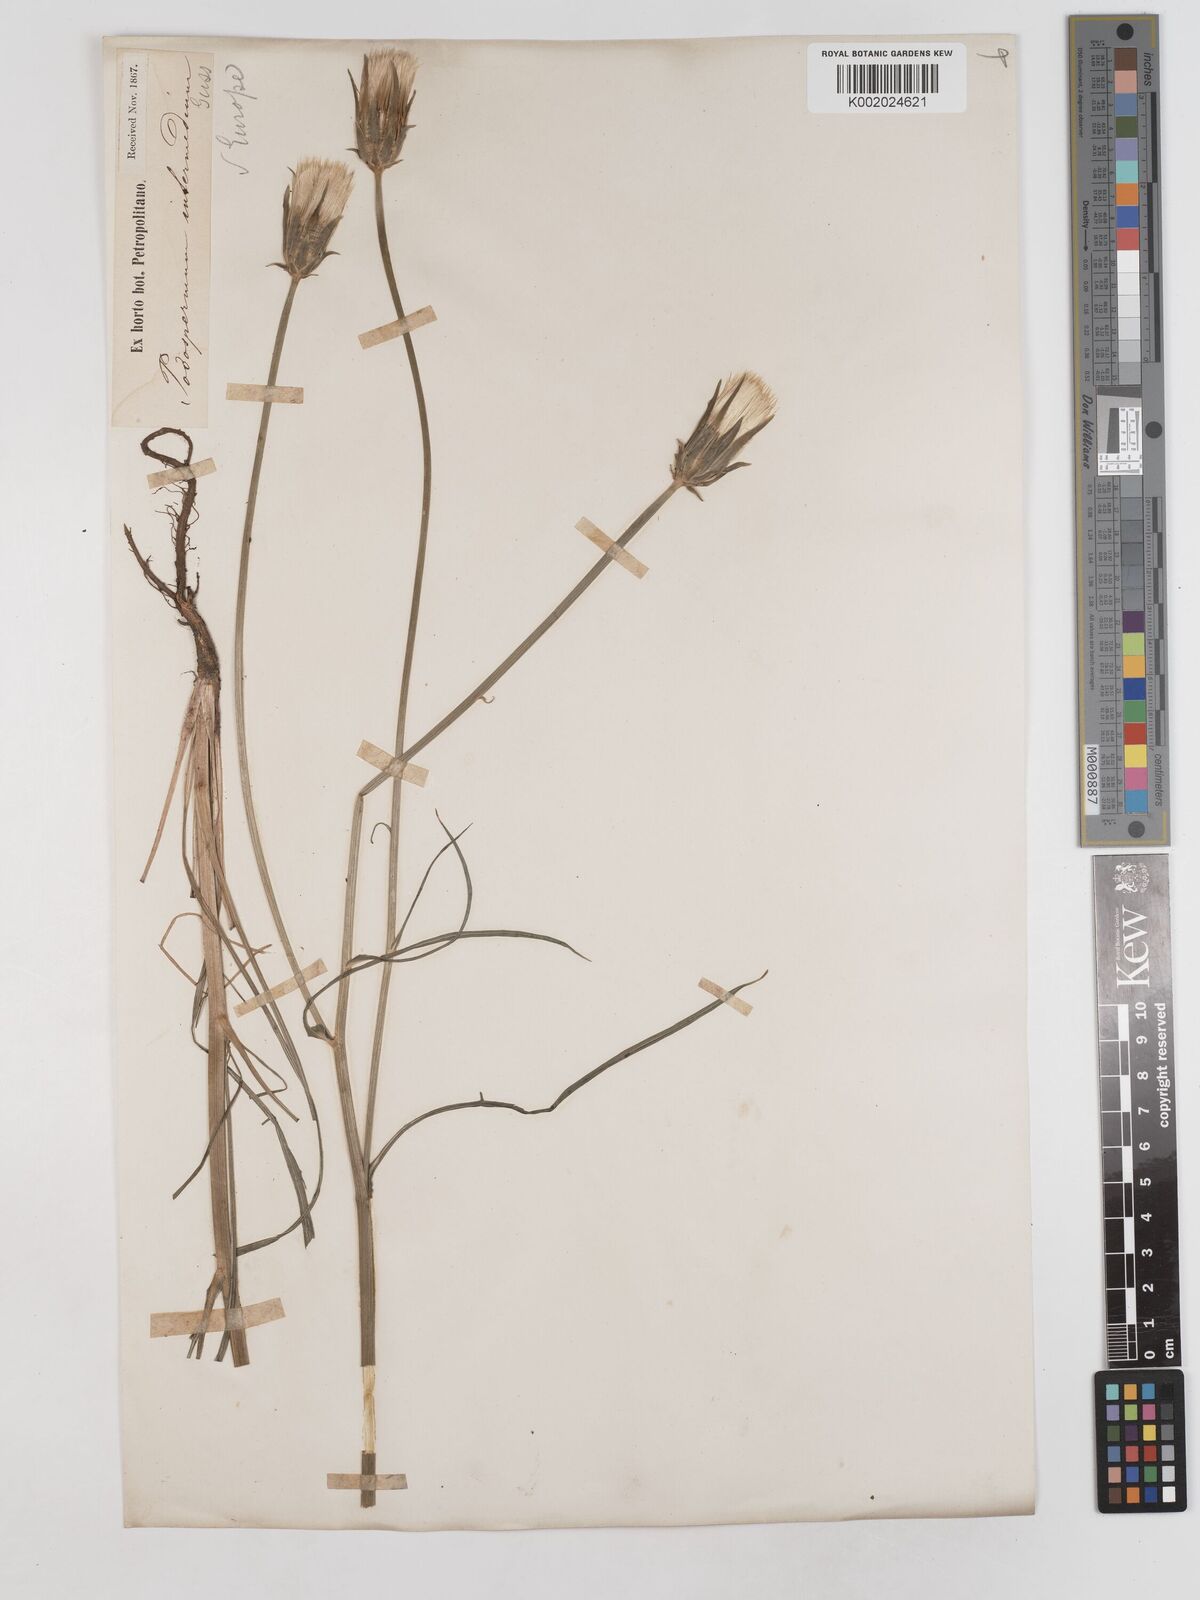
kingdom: Plantae
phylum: Tracheophyta
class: Magnoliopsida
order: Asterales
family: Asteraceae
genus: Scorzonera
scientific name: Scorzonera laciniata
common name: Cutleaf vipergrass
